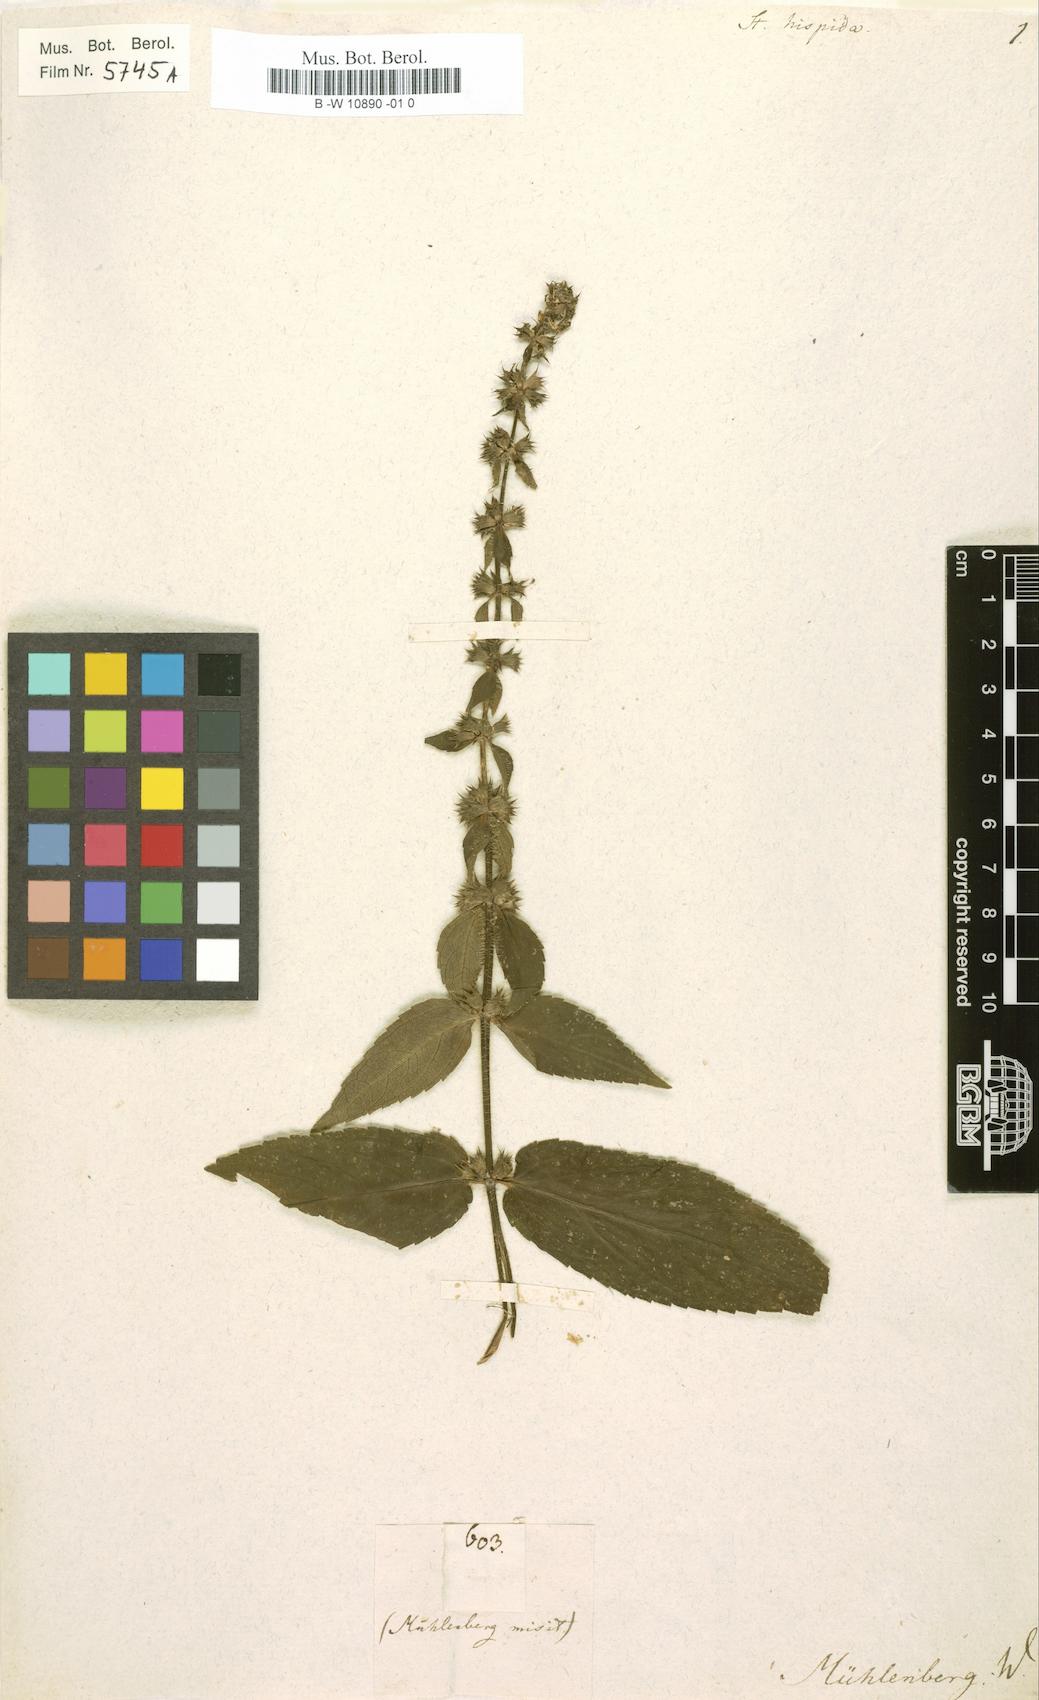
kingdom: Plantae
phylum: Tracheophyta
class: Magnoliopsida
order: Lamiales
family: Lamiaceae
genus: Stachys
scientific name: Stachys hispida
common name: Hispid hedge-nettle
